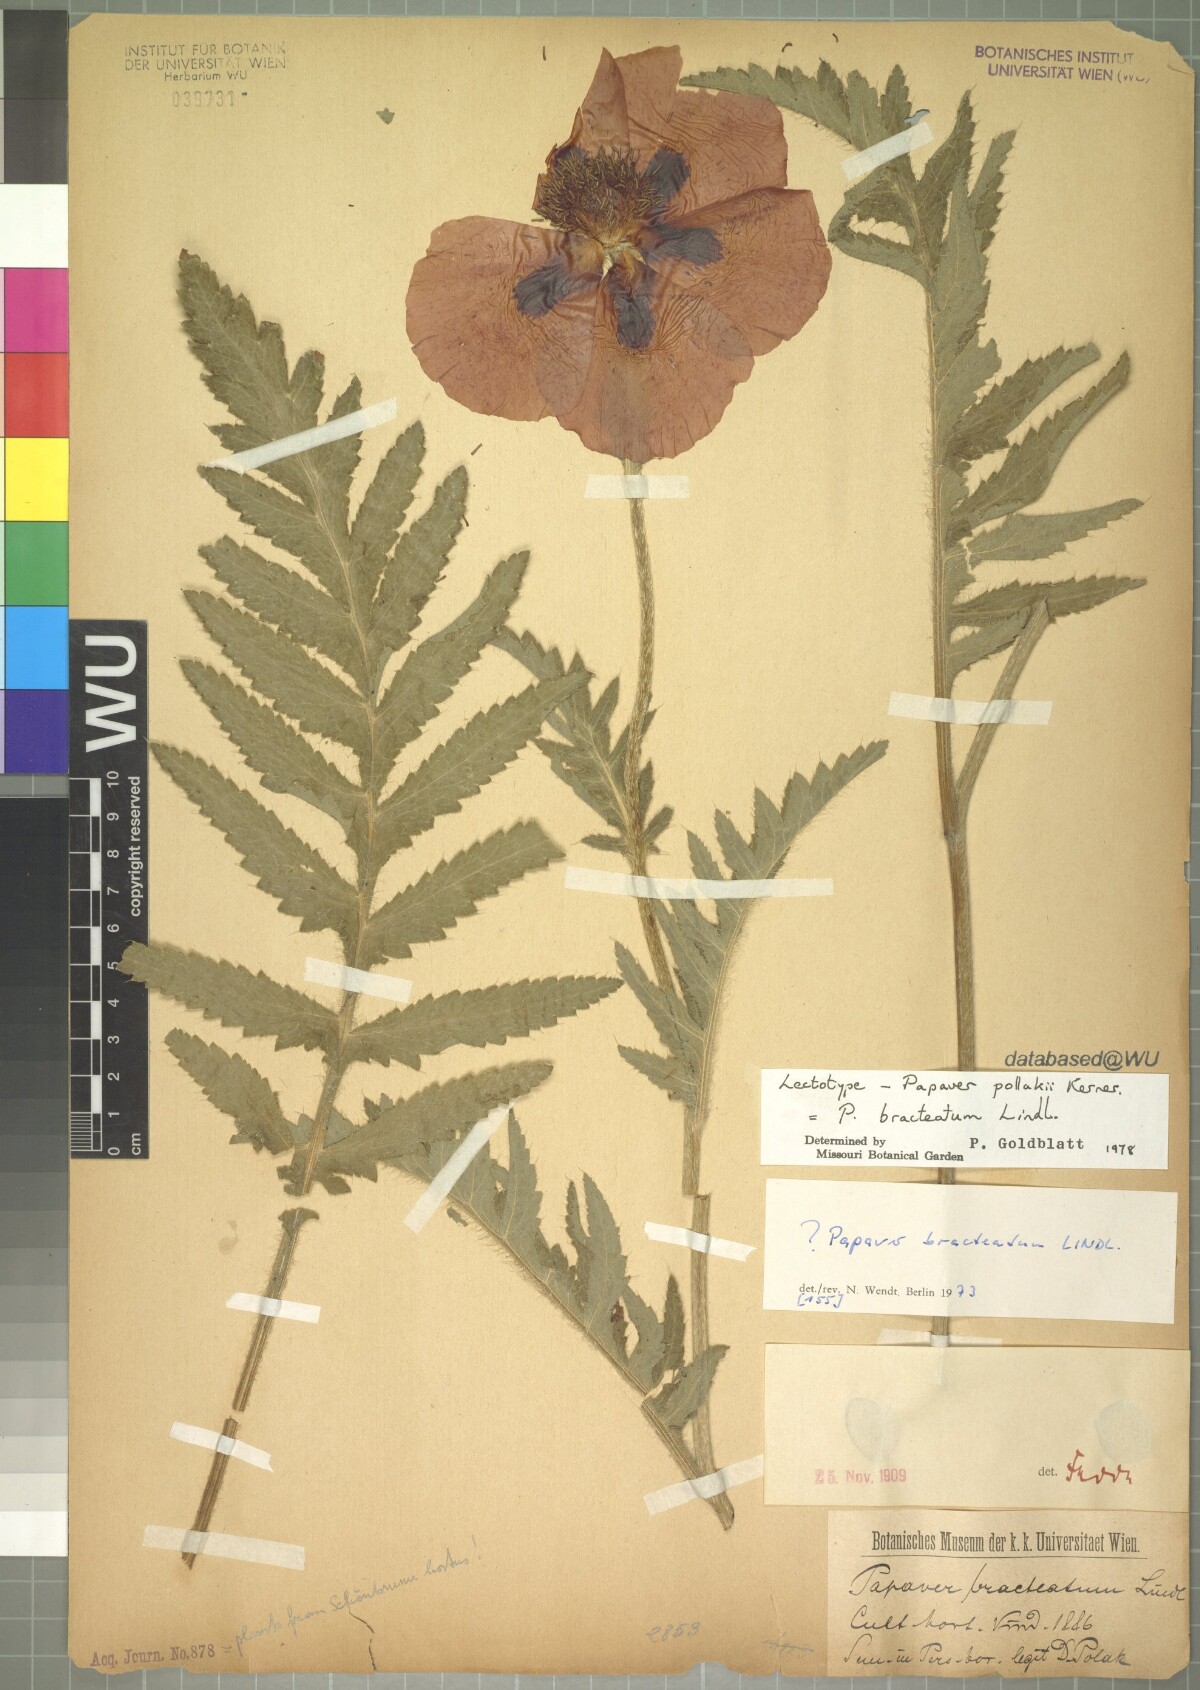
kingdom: Plantae
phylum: Tracheophyta
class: Magnoliopsida
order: Ranunculales
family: Papaveraceae
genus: Papaver
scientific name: Papaver bracteatum
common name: Great scarlet poppy
